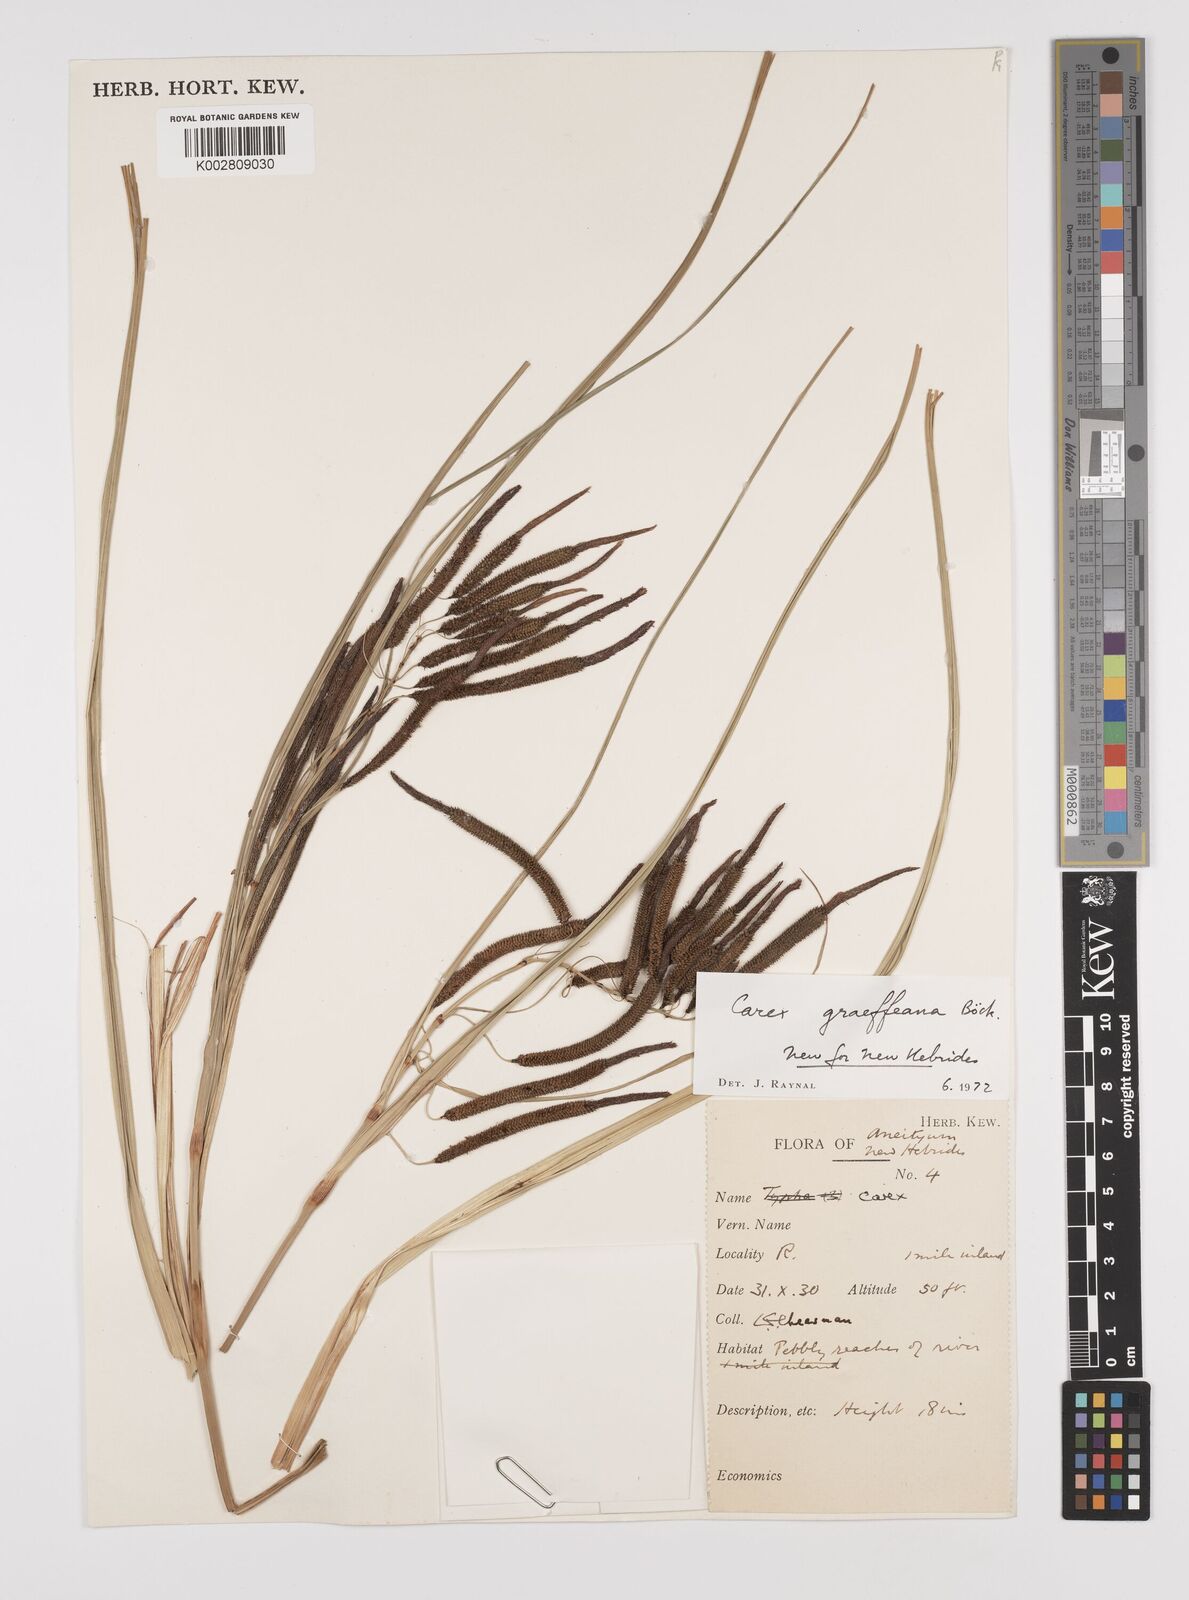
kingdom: Plantae
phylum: Tracheophyta
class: Liliopsida
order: Poales
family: Cyperaceae
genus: Carex
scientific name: Carex graeffeana
